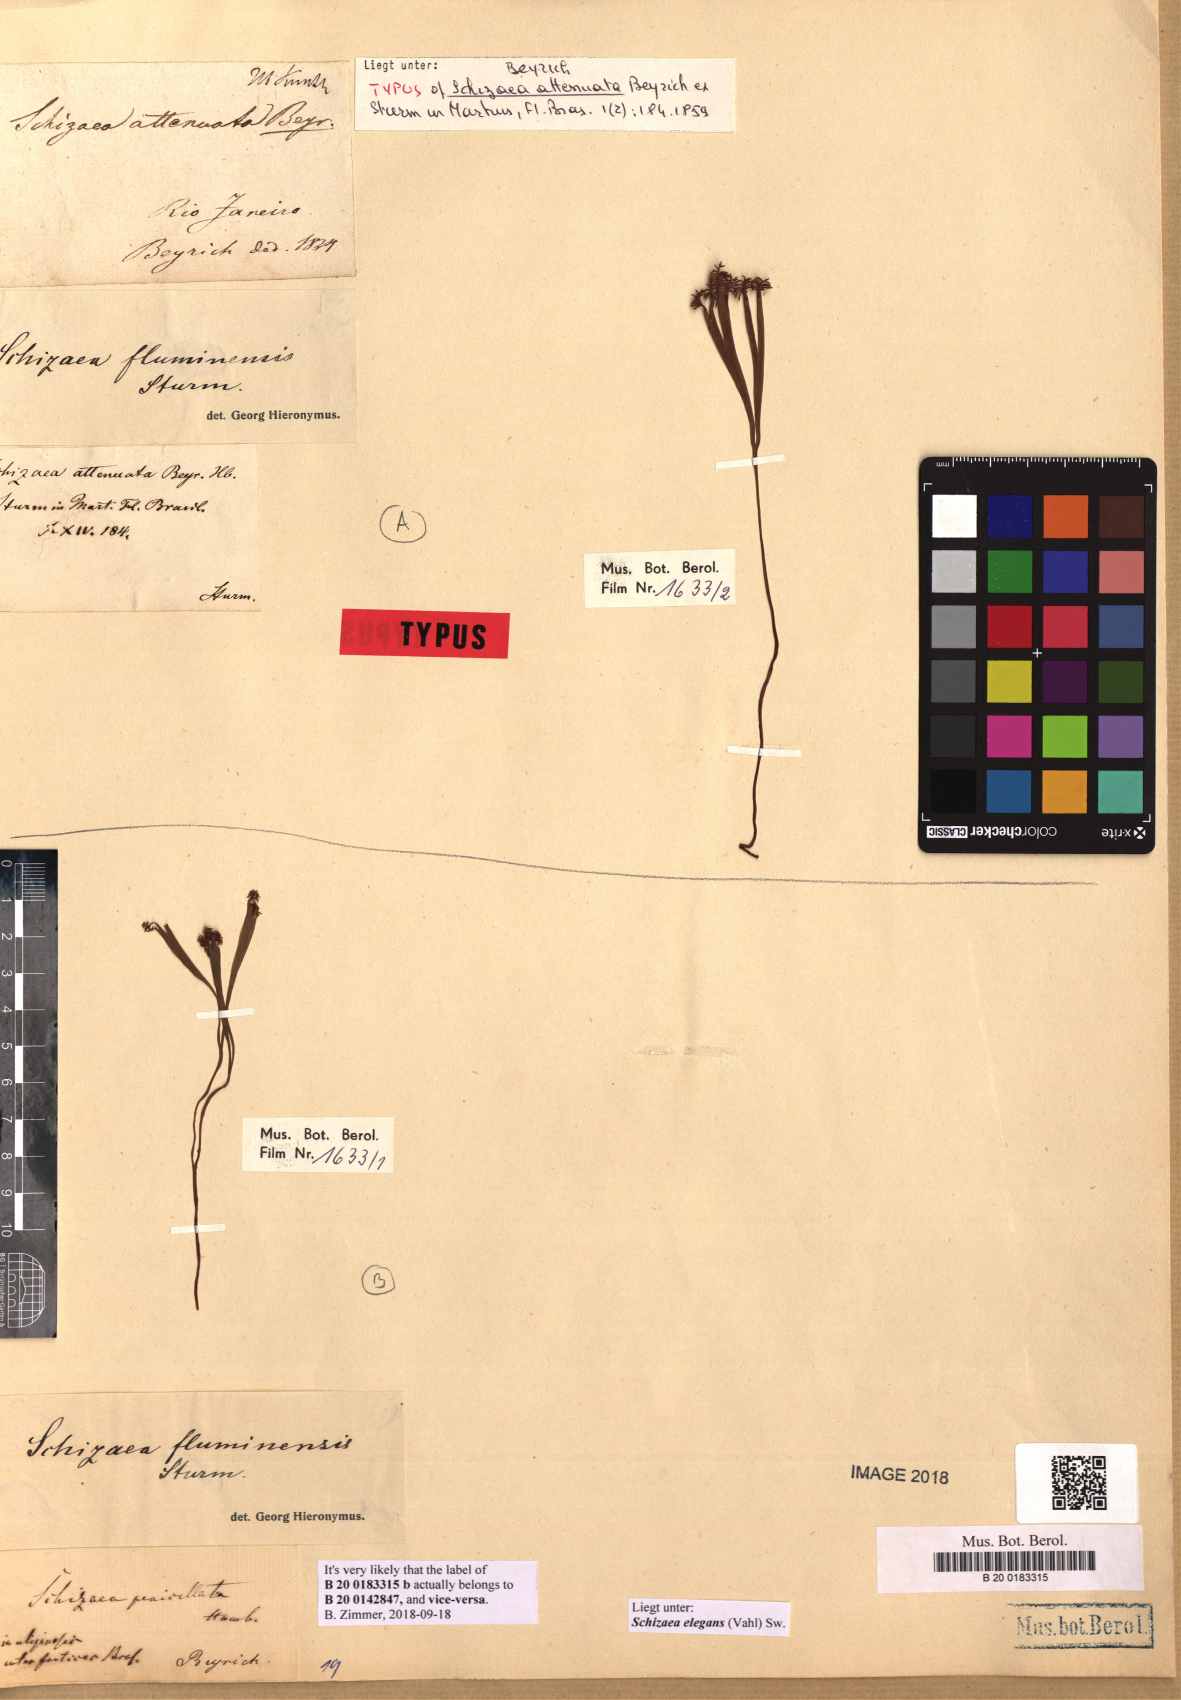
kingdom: Plantae
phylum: Tracheophyta
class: Polypodiopsida
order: Schizaeales
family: Schizaeaceae
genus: Schizaea
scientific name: Schizaea elegans
